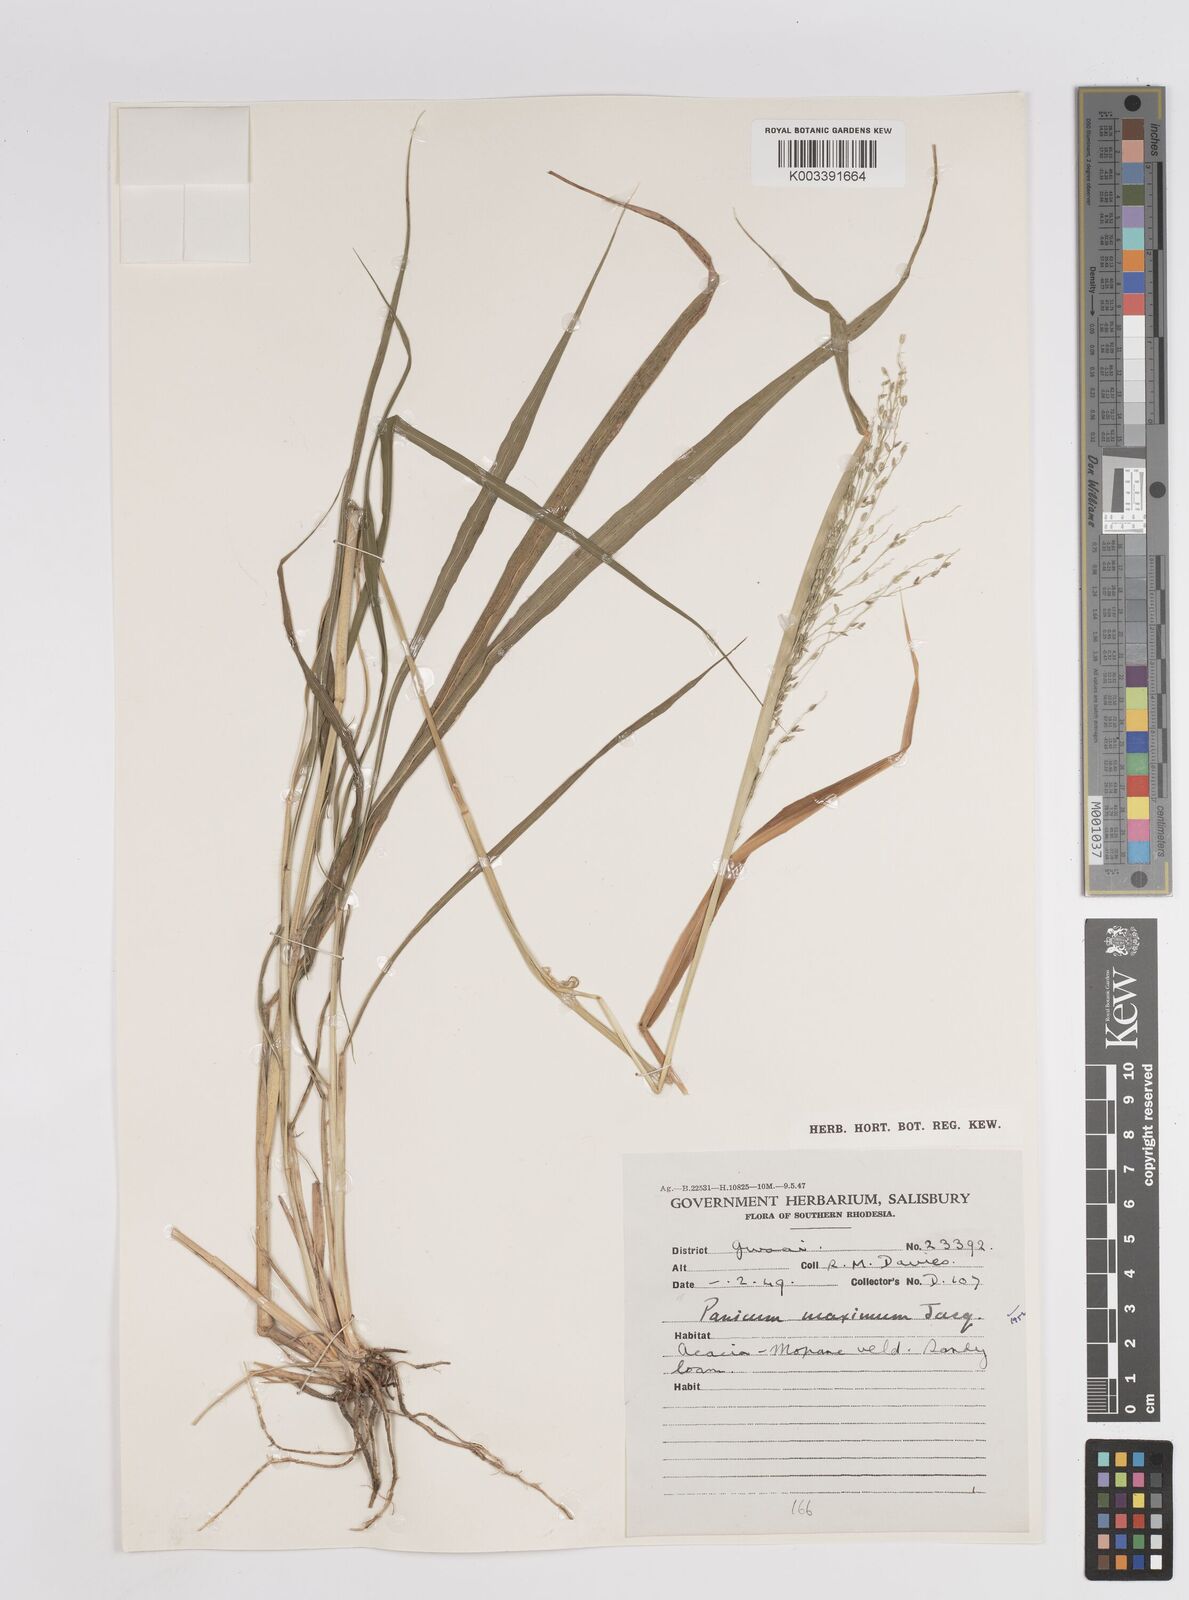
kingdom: Plantae
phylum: Tracheophyta
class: Liliopsida
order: Poales
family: Poaceae
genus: Megathyrsus
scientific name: Megathyrsus maximus
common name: Guineagrass
